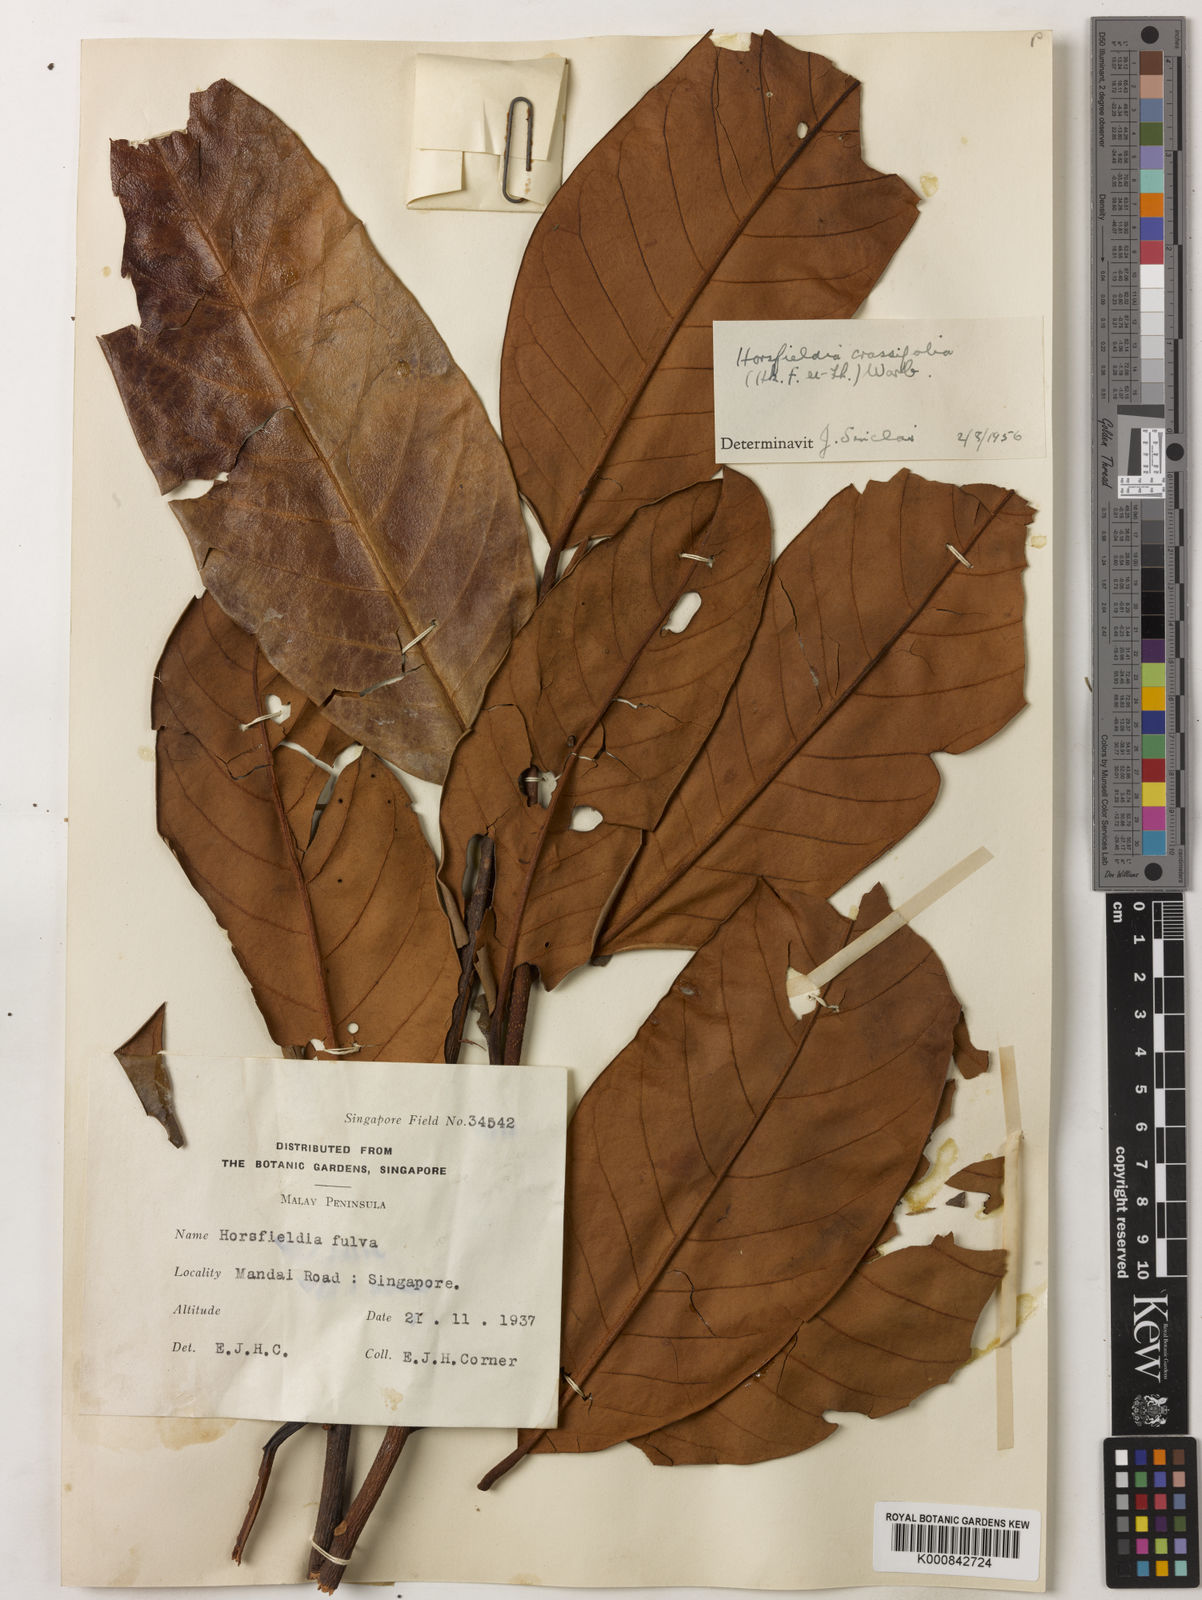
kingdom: Plantae
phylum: Tracheophyta
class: Magnoliopsida
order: Magnoliales
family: Myristicaceae
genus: Horsfieldia
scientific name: Horsfieldia crassifolia
